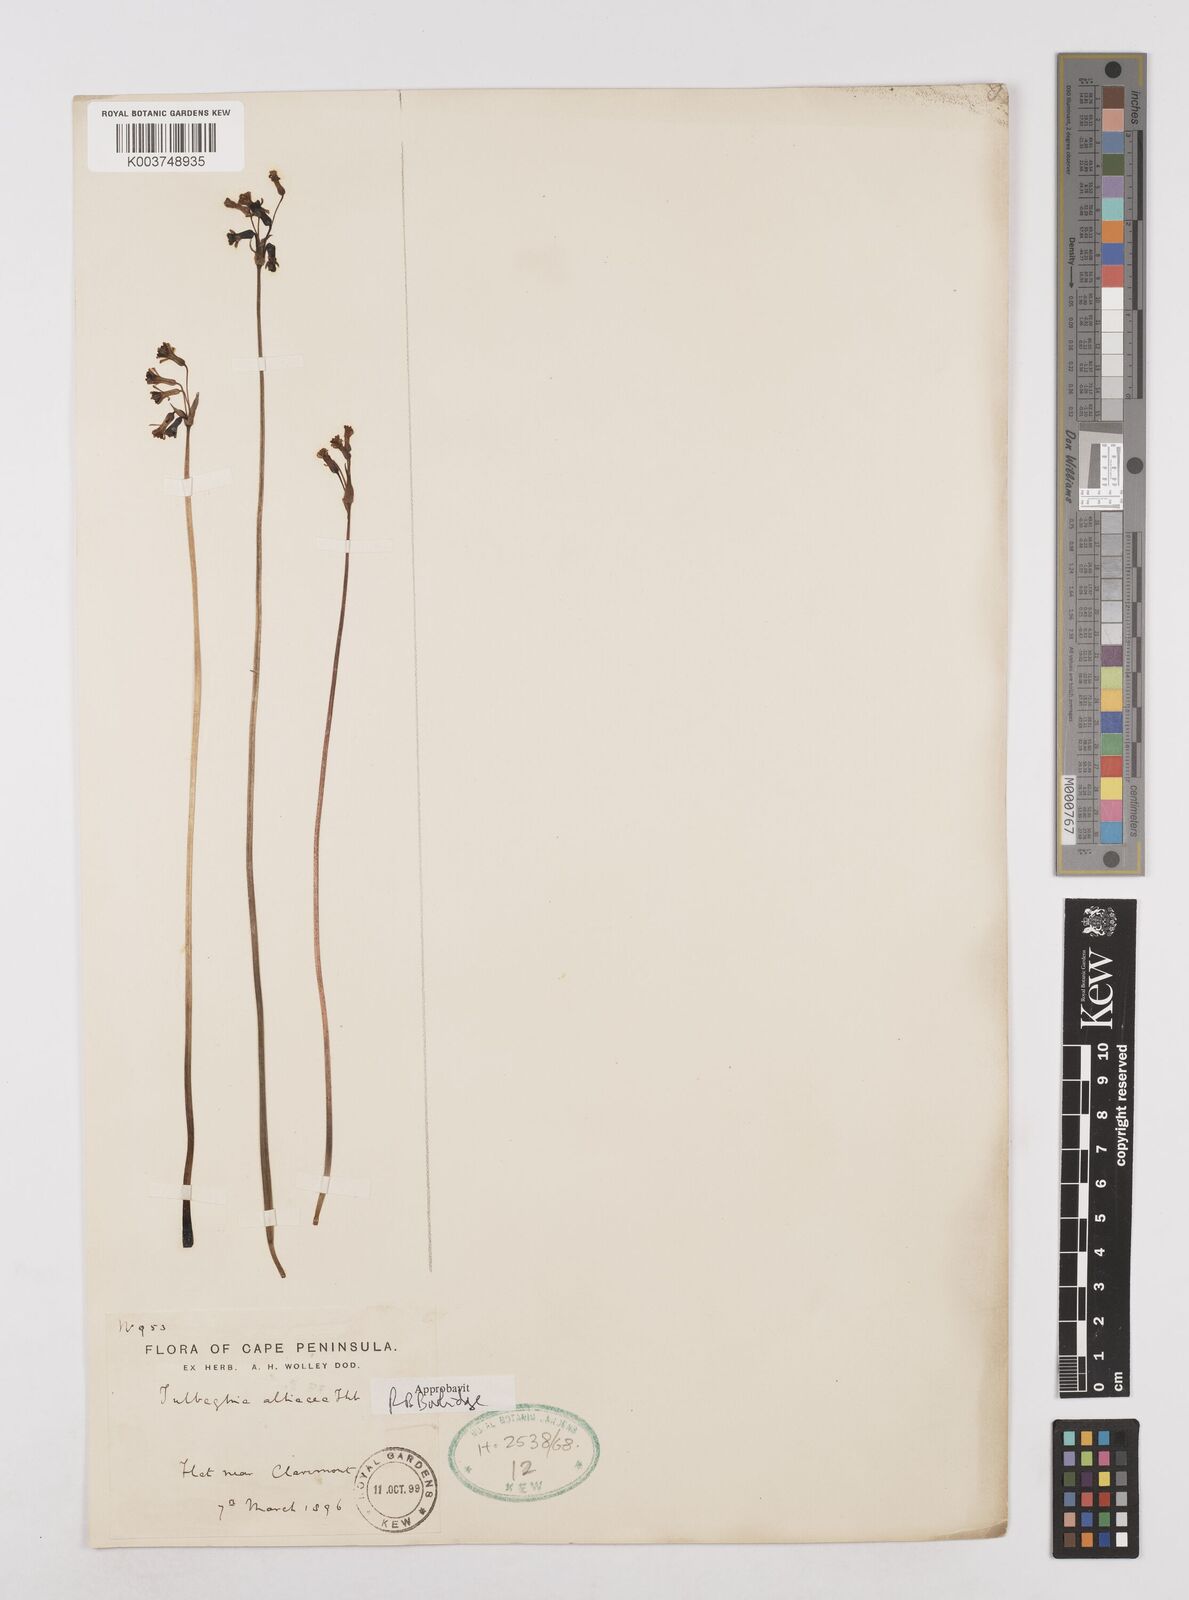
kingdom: Plantae
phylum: Tracheophyta
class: Liliopsida
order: Asparagales
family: Amaryllidaceae
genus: Tulbaghia
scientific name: Tulbaghia alliacea
